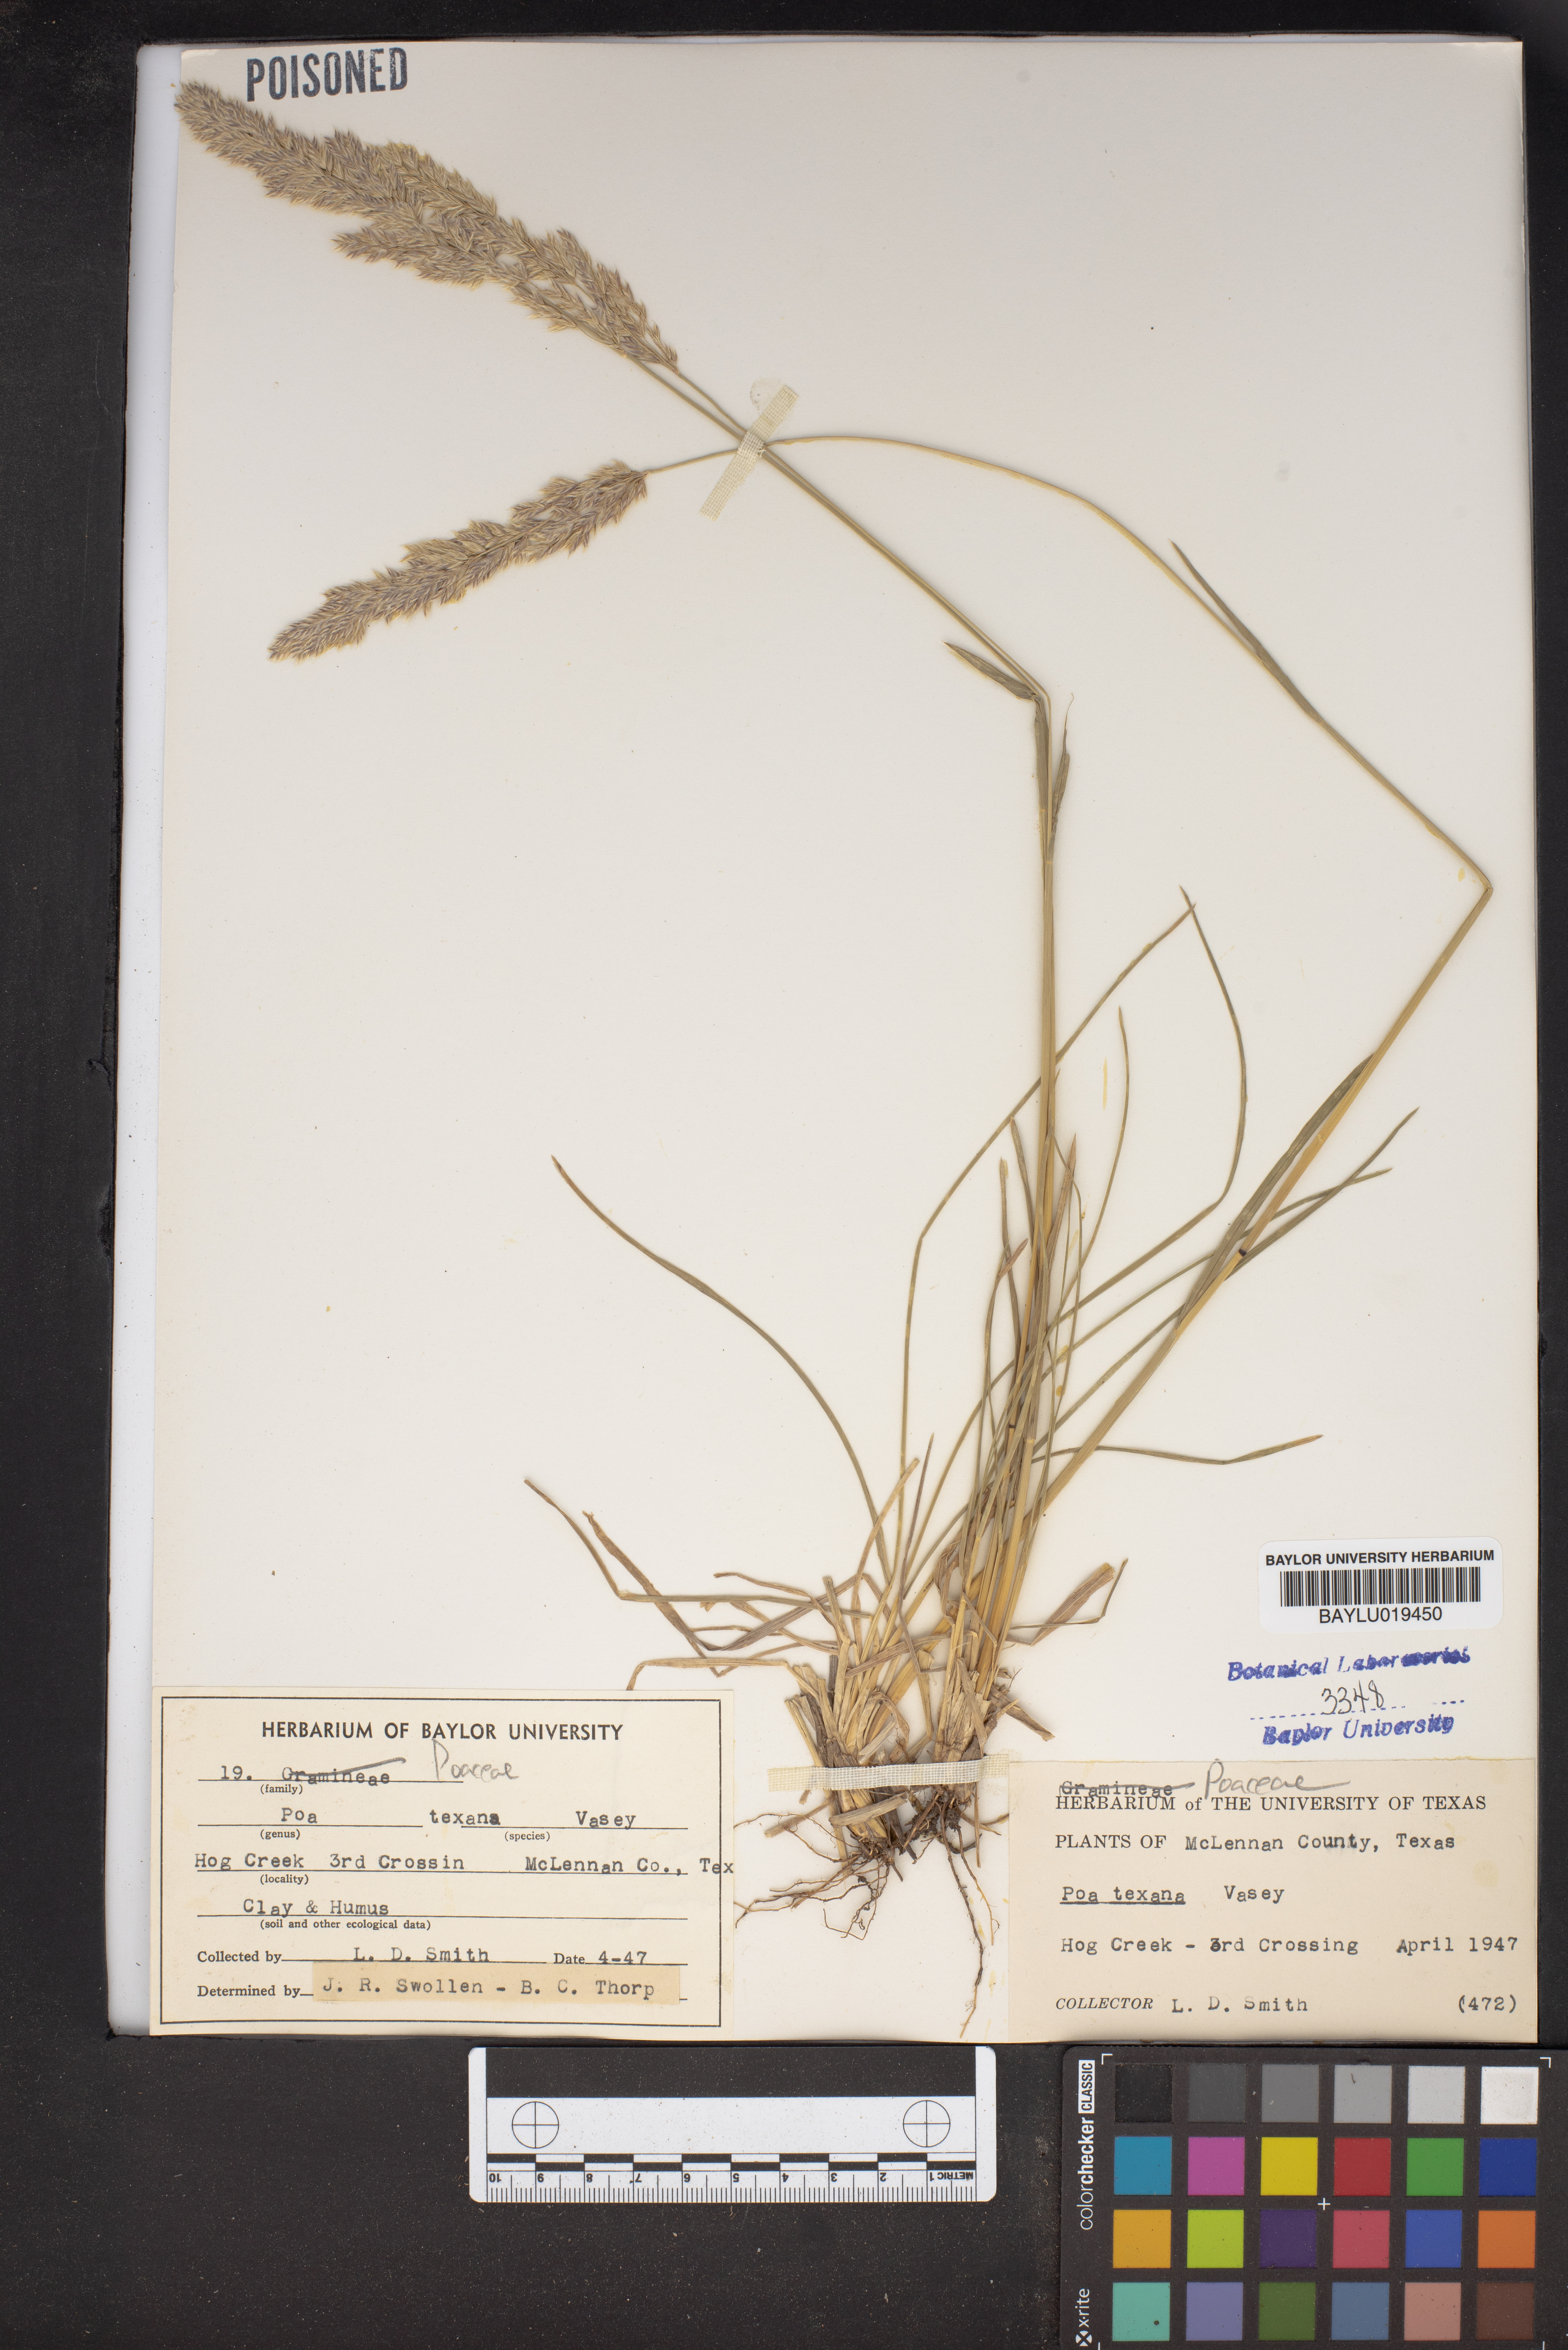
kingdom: Plantae
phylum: Tracheophyta
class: Liliopsida
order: Poales
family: Poaceae
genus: Allolepis
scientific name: Allolepis texana
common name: False salt grass
